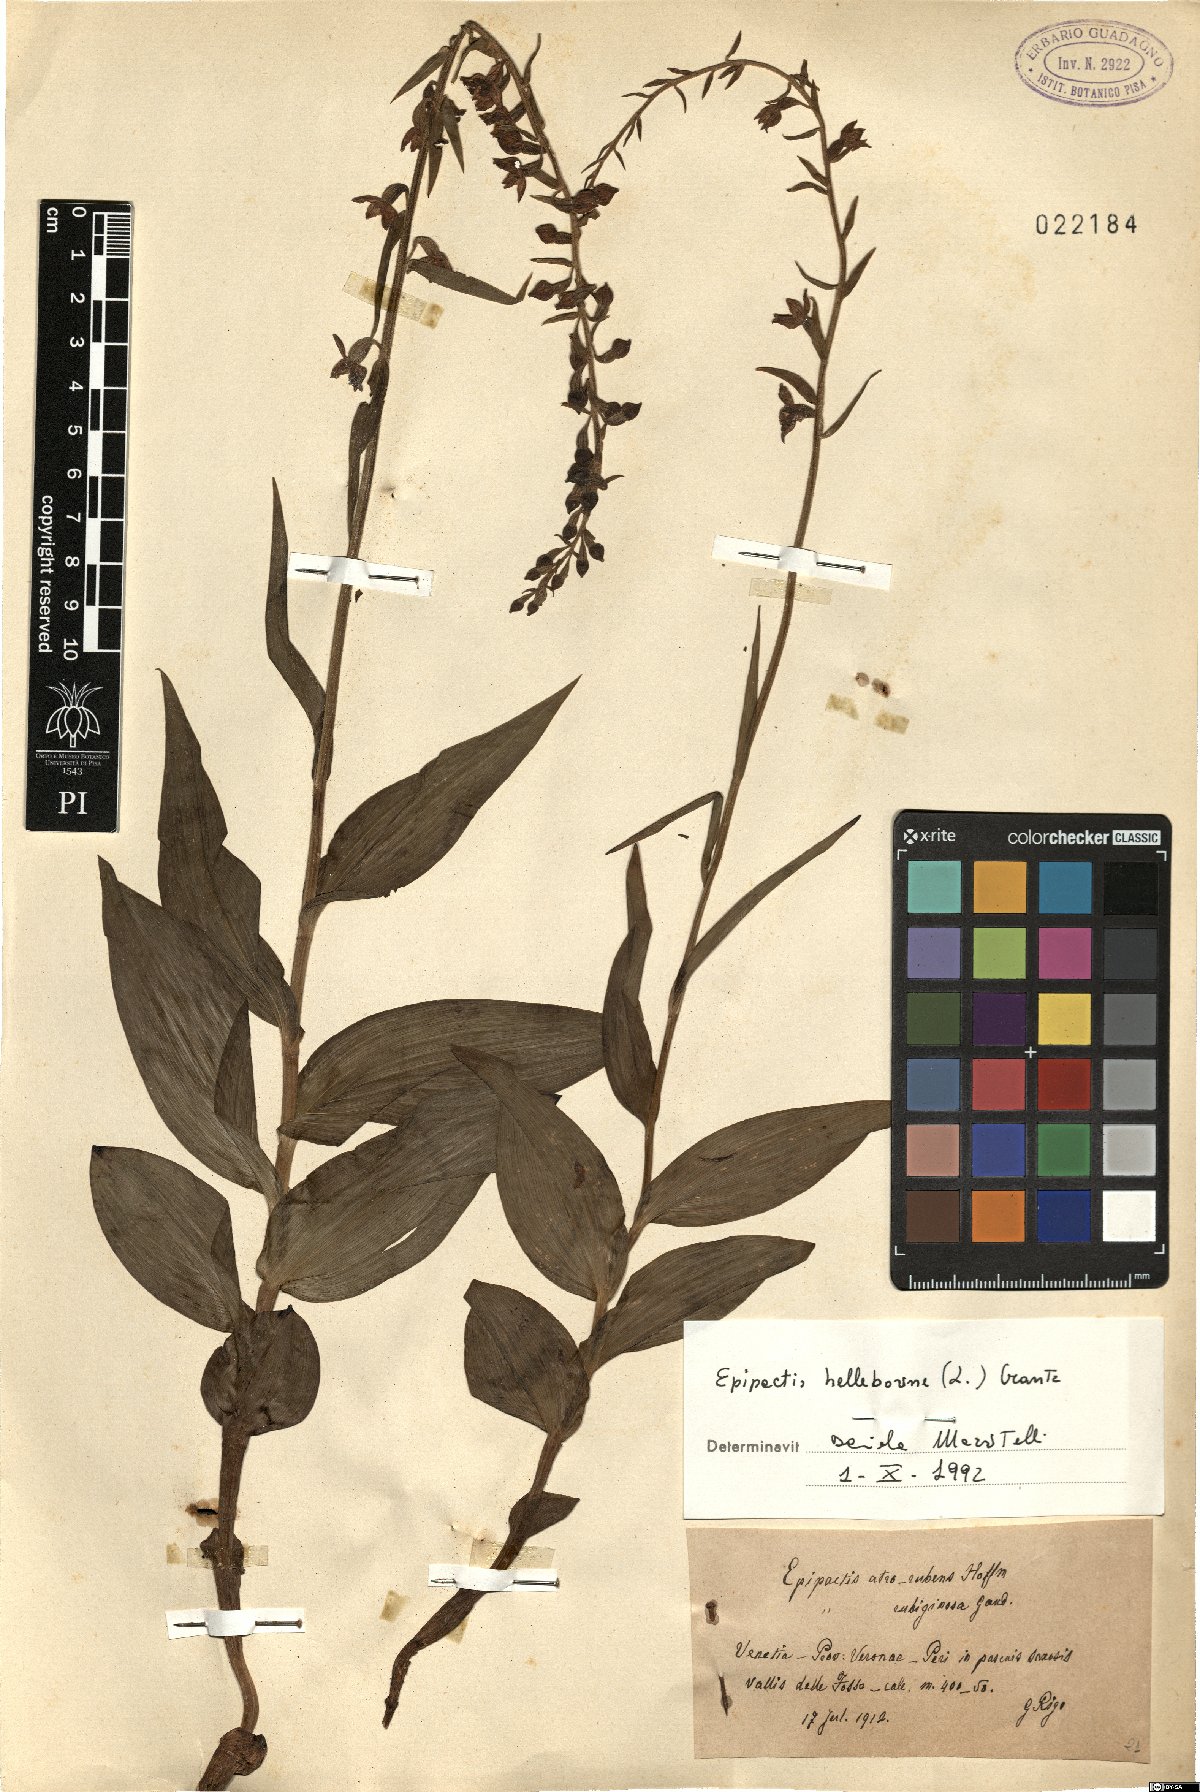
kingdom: Plantae
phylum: Tracheophyta
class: Liliopsida
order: Asparagales
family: Orchidaceae
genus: Epipactis
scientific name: Epipactis helleborine
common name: Broad-leaved helleborine
